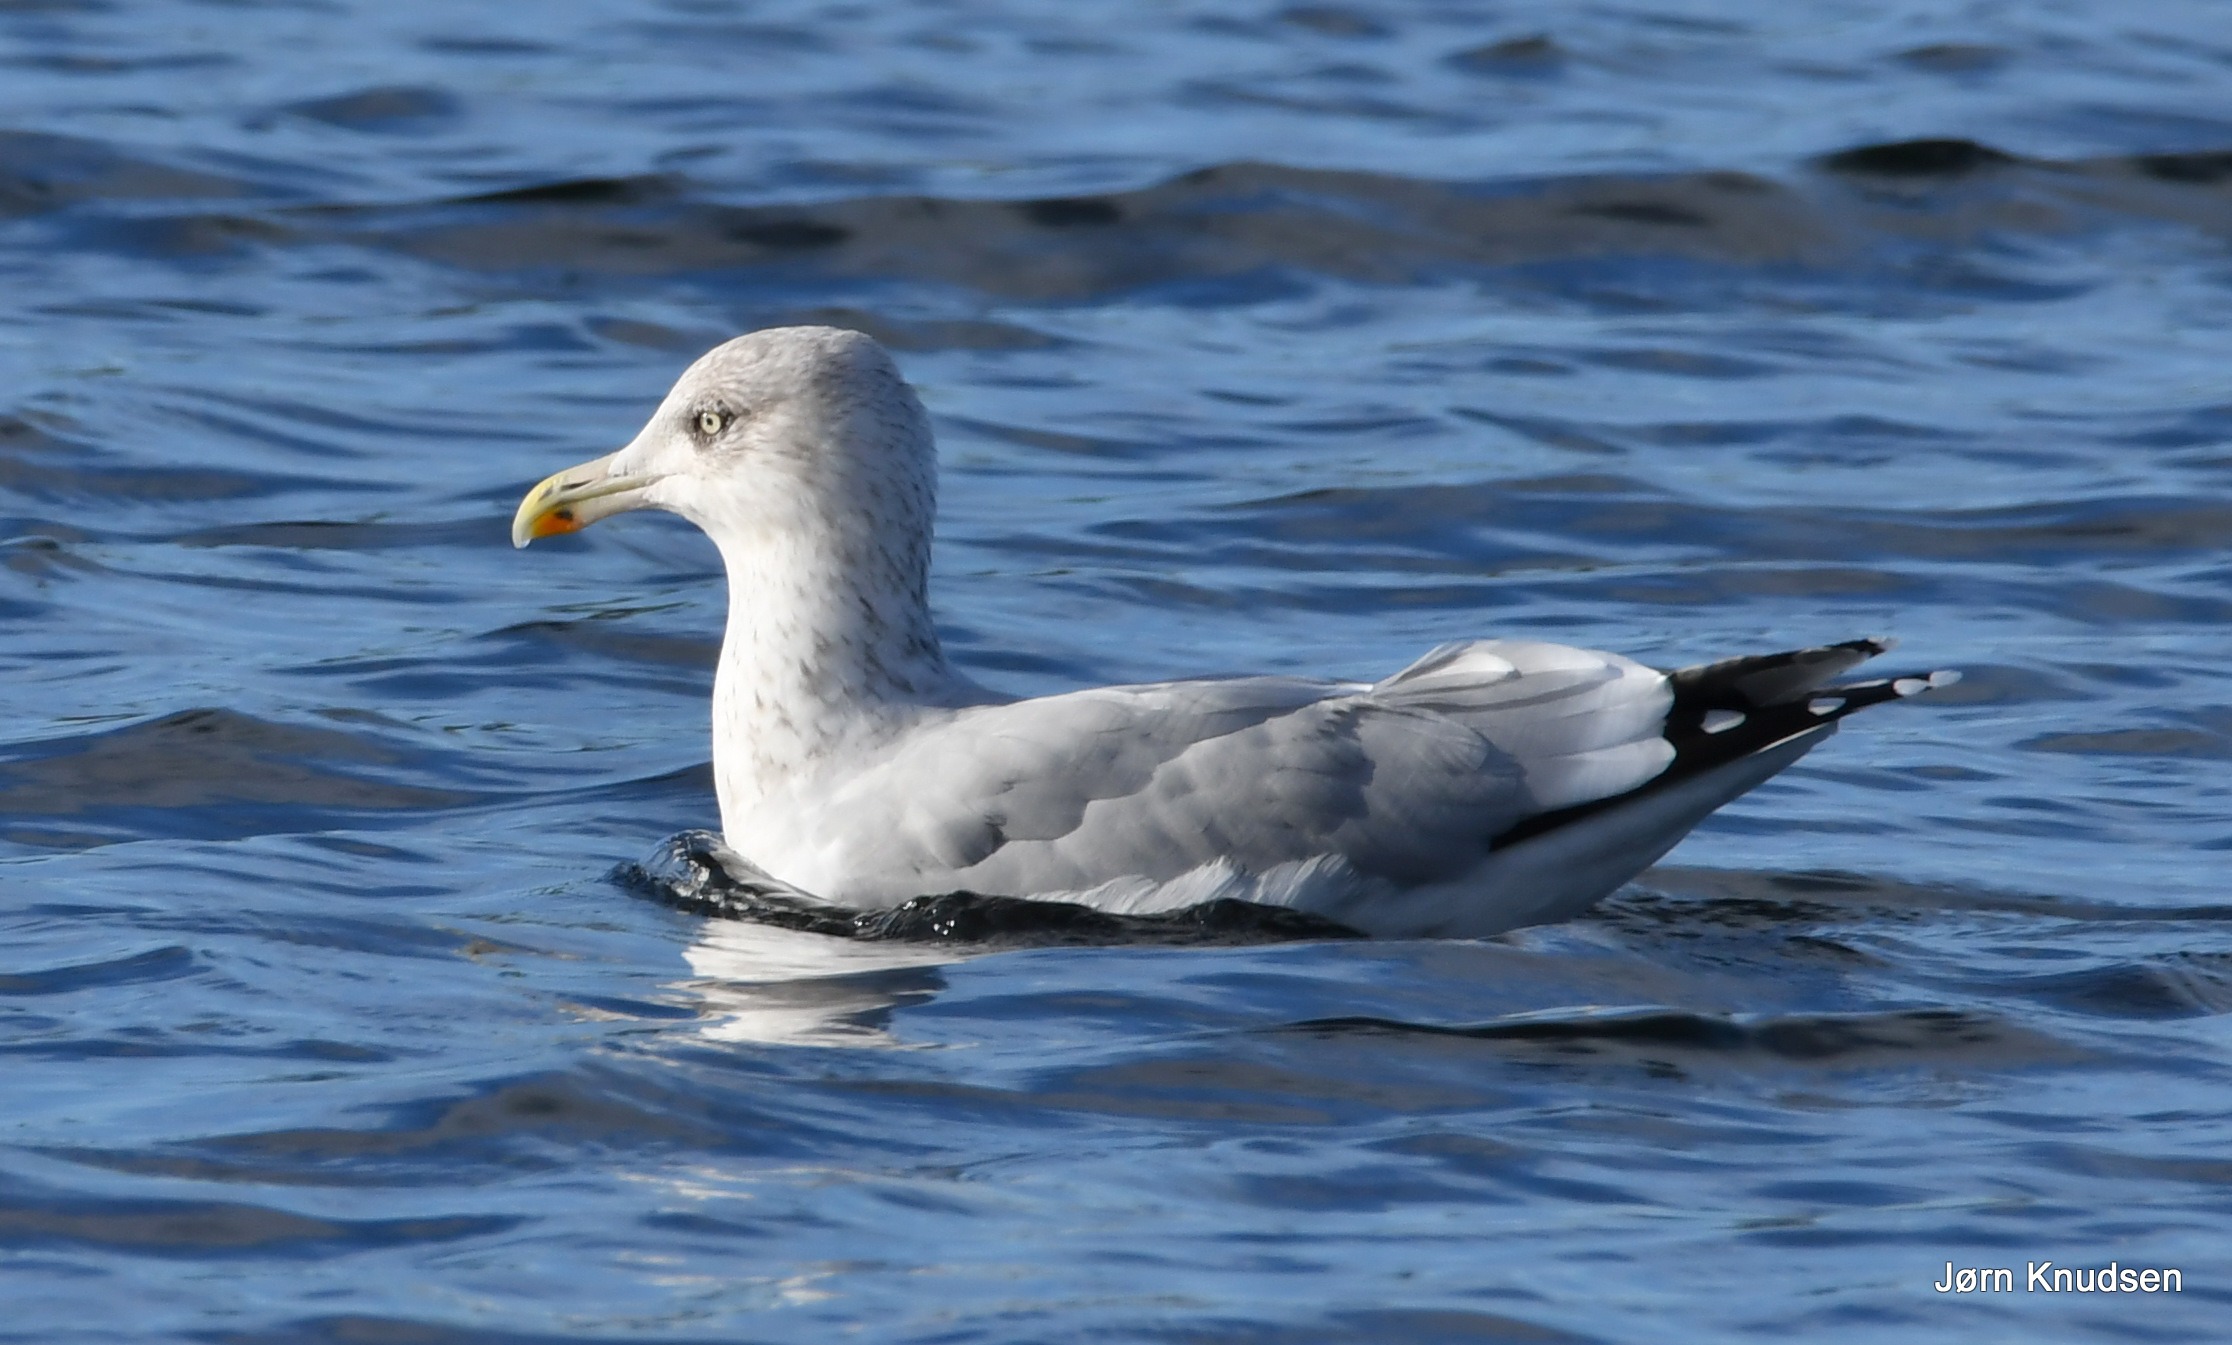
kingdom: Animalia
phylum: Chordata
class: Aves
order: Charadriiformes
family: Laridae
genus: Larus
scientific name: Larus argentatus
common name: Sølvmåge
